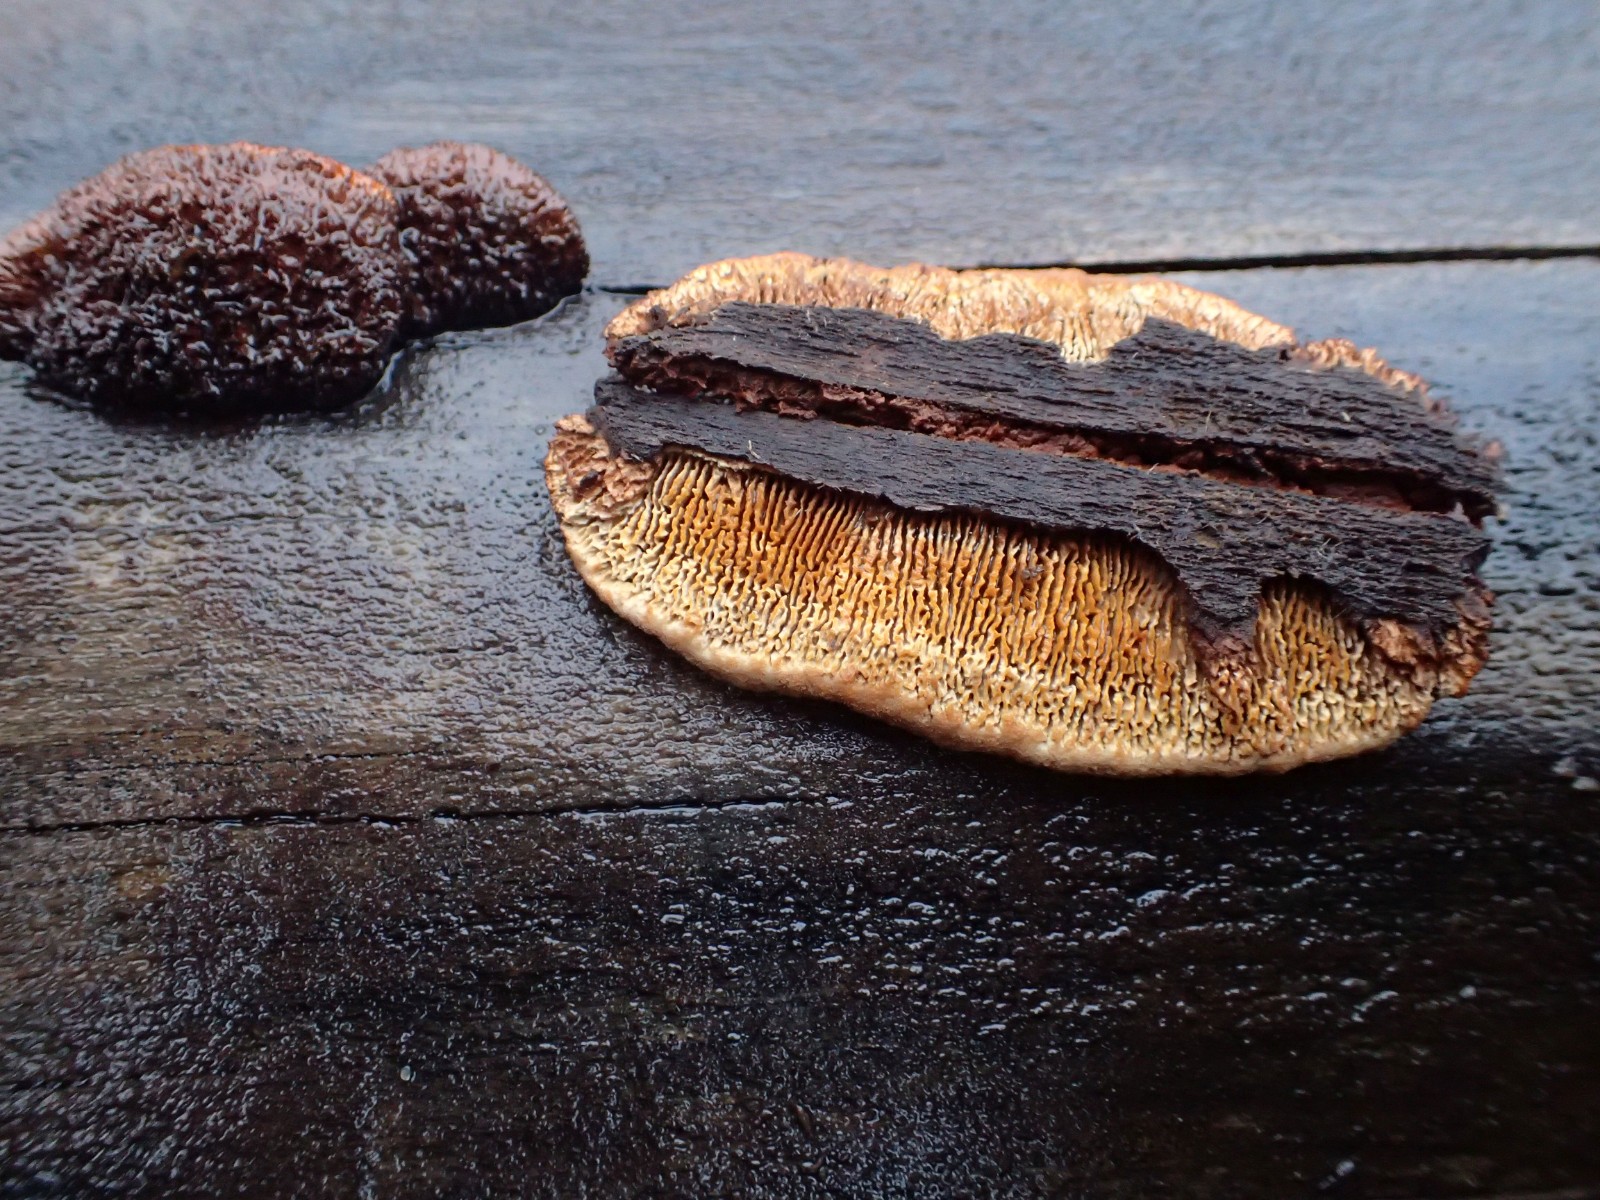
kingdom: Fungi
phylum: Basidiomycota
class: Agaricomycetes
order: Gloeophyllales
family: Gloeophyllaceae
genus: Gloeophyllum
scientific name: Gloeophyllum sepiarium
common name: fyrre-korkhat
